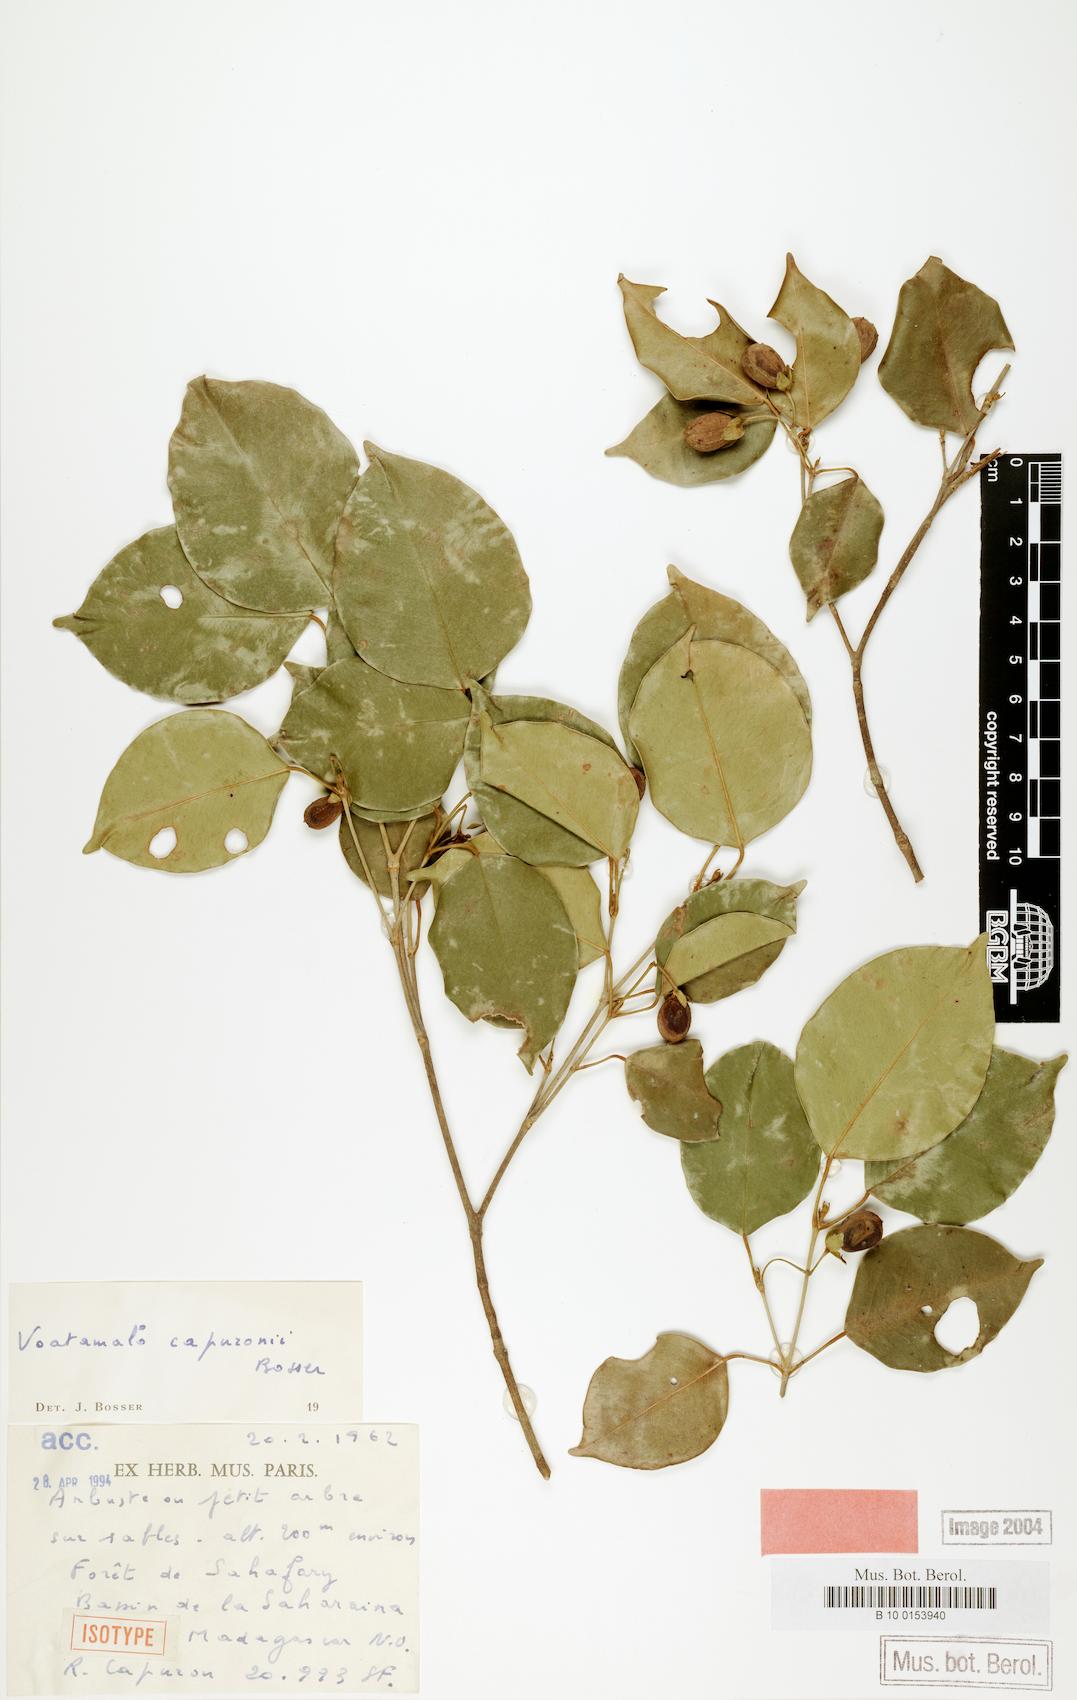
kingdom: Plantae
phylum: Tracheophyta
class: Magnoliopsida
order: Malpighiales
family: Picrodendraceae
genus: Voatamalo
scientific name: Voatamalo capuronii
